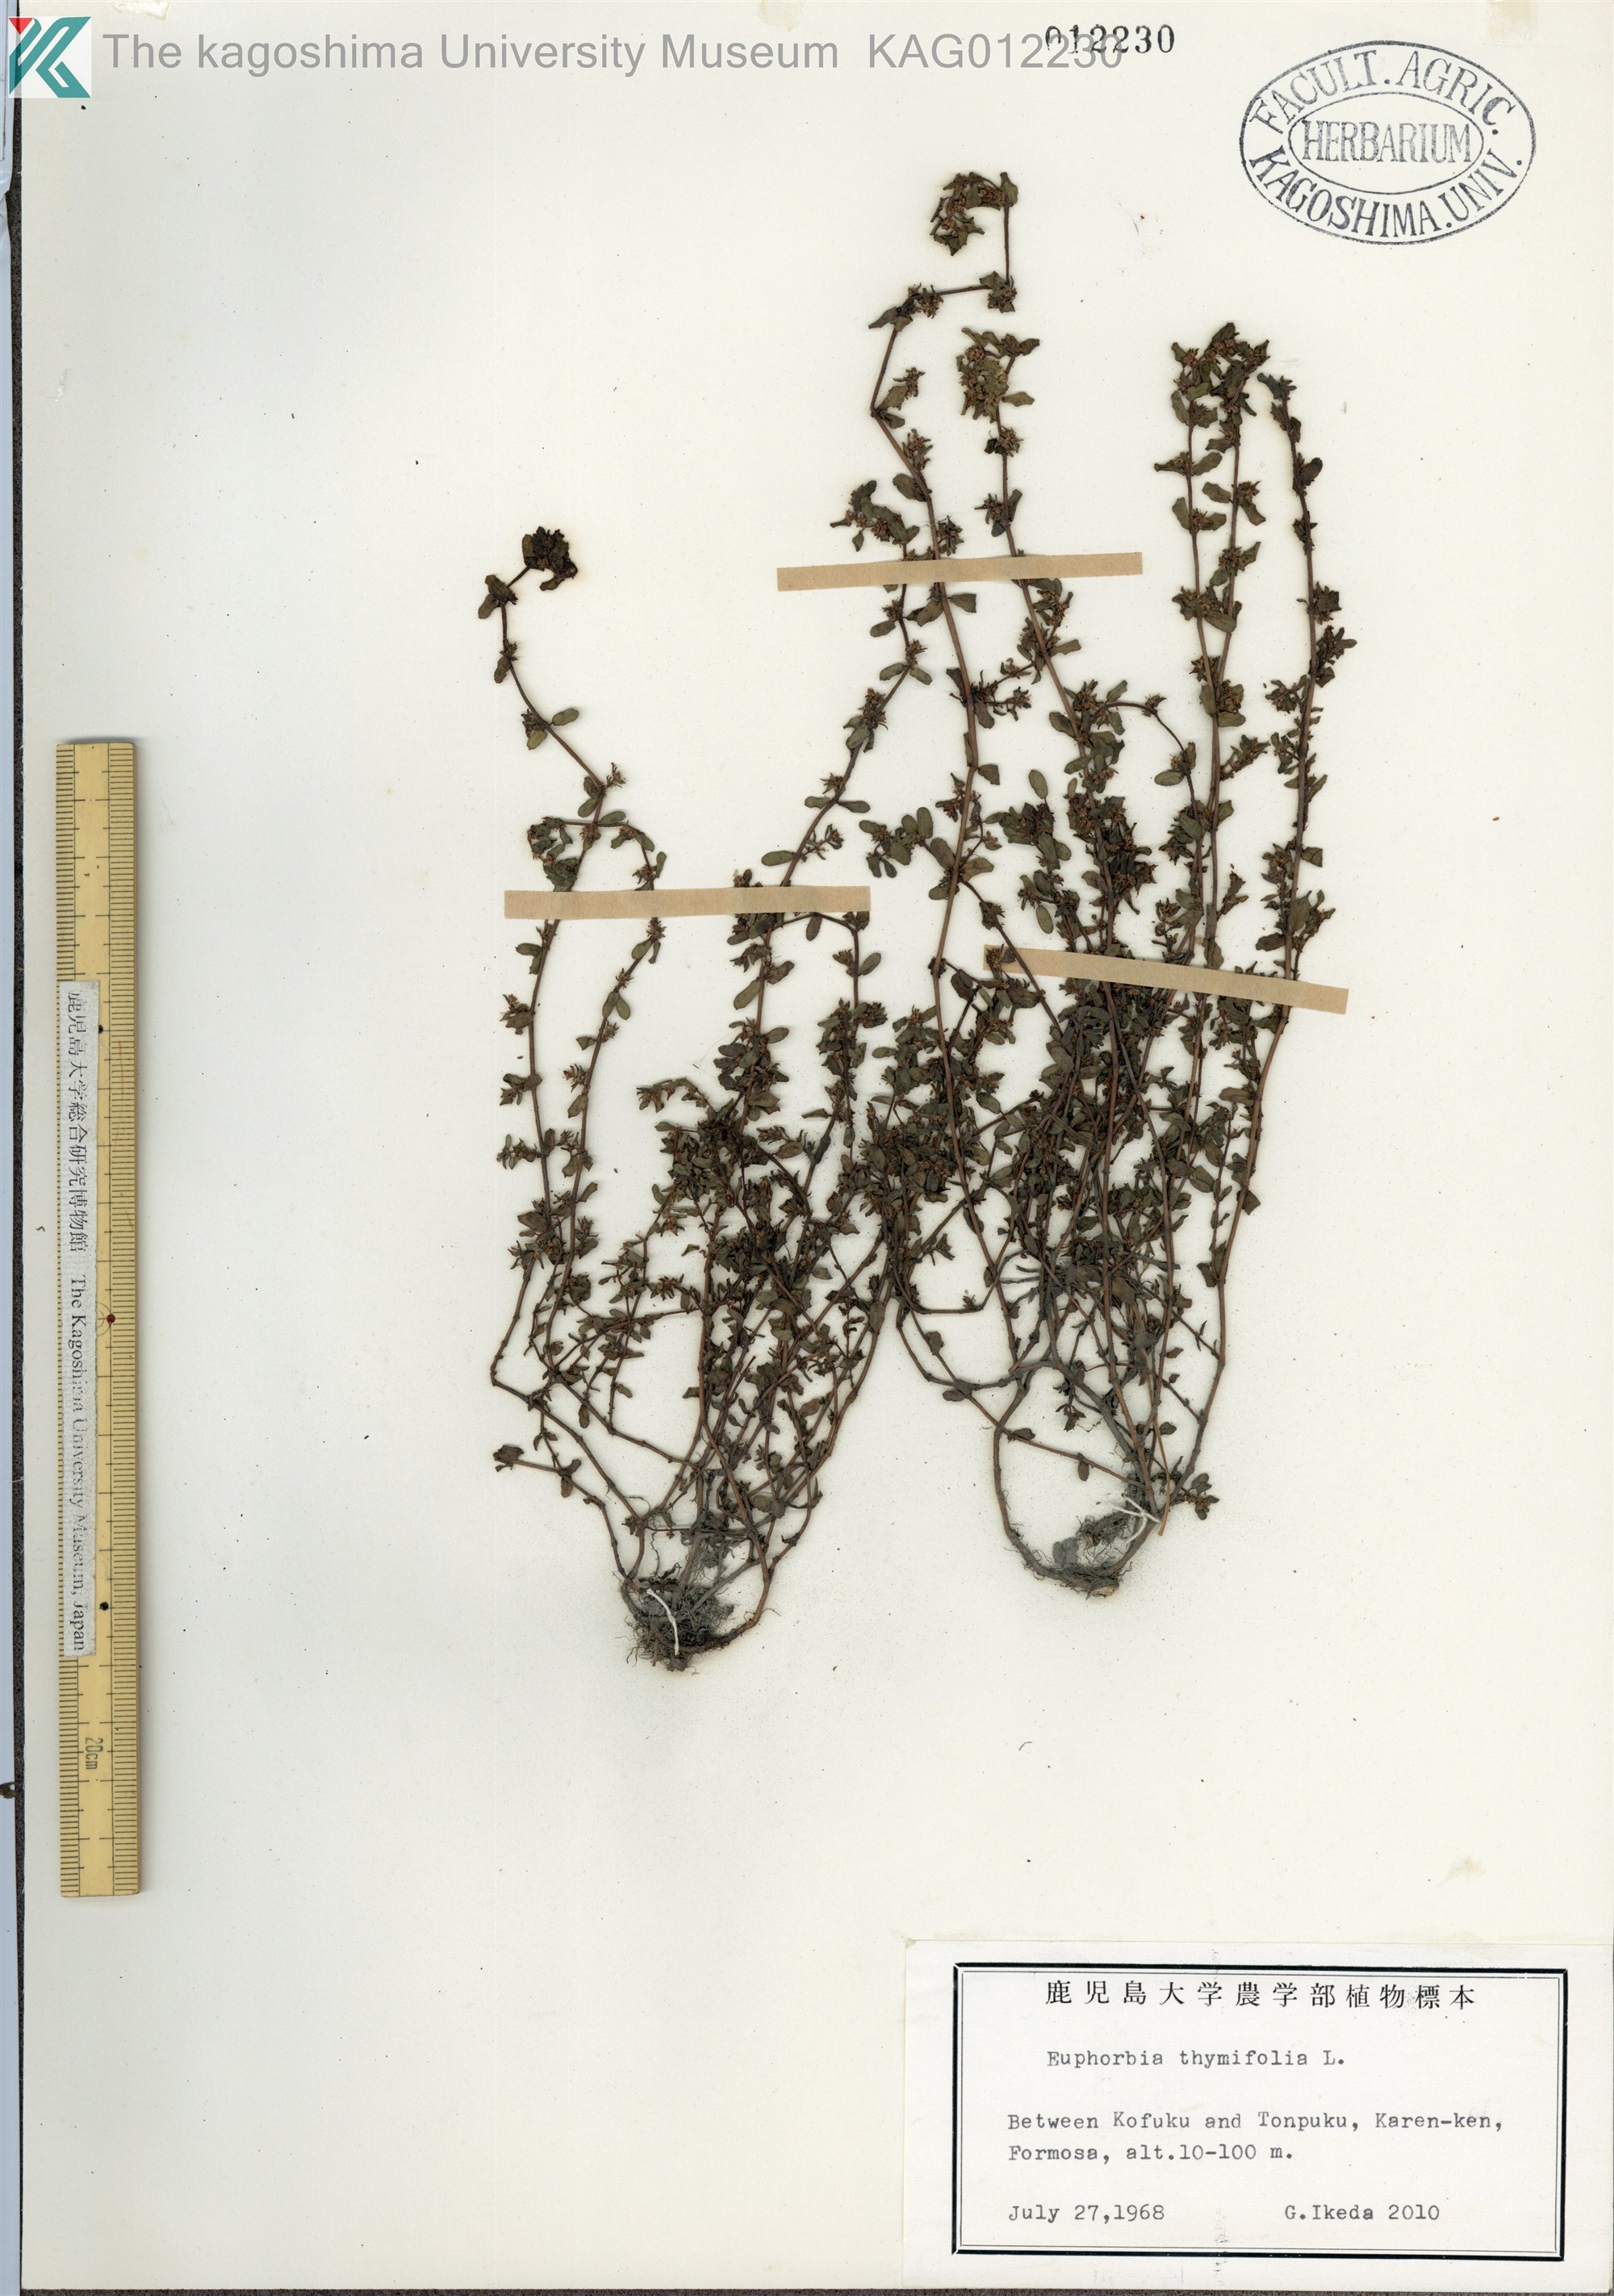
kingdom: Plantae
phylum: Tracheophyta
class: Magnoliopsida
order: Malpighiales
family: Euphorbiaceae
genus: Euphorbia
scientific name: Euphorbia thymifolia
